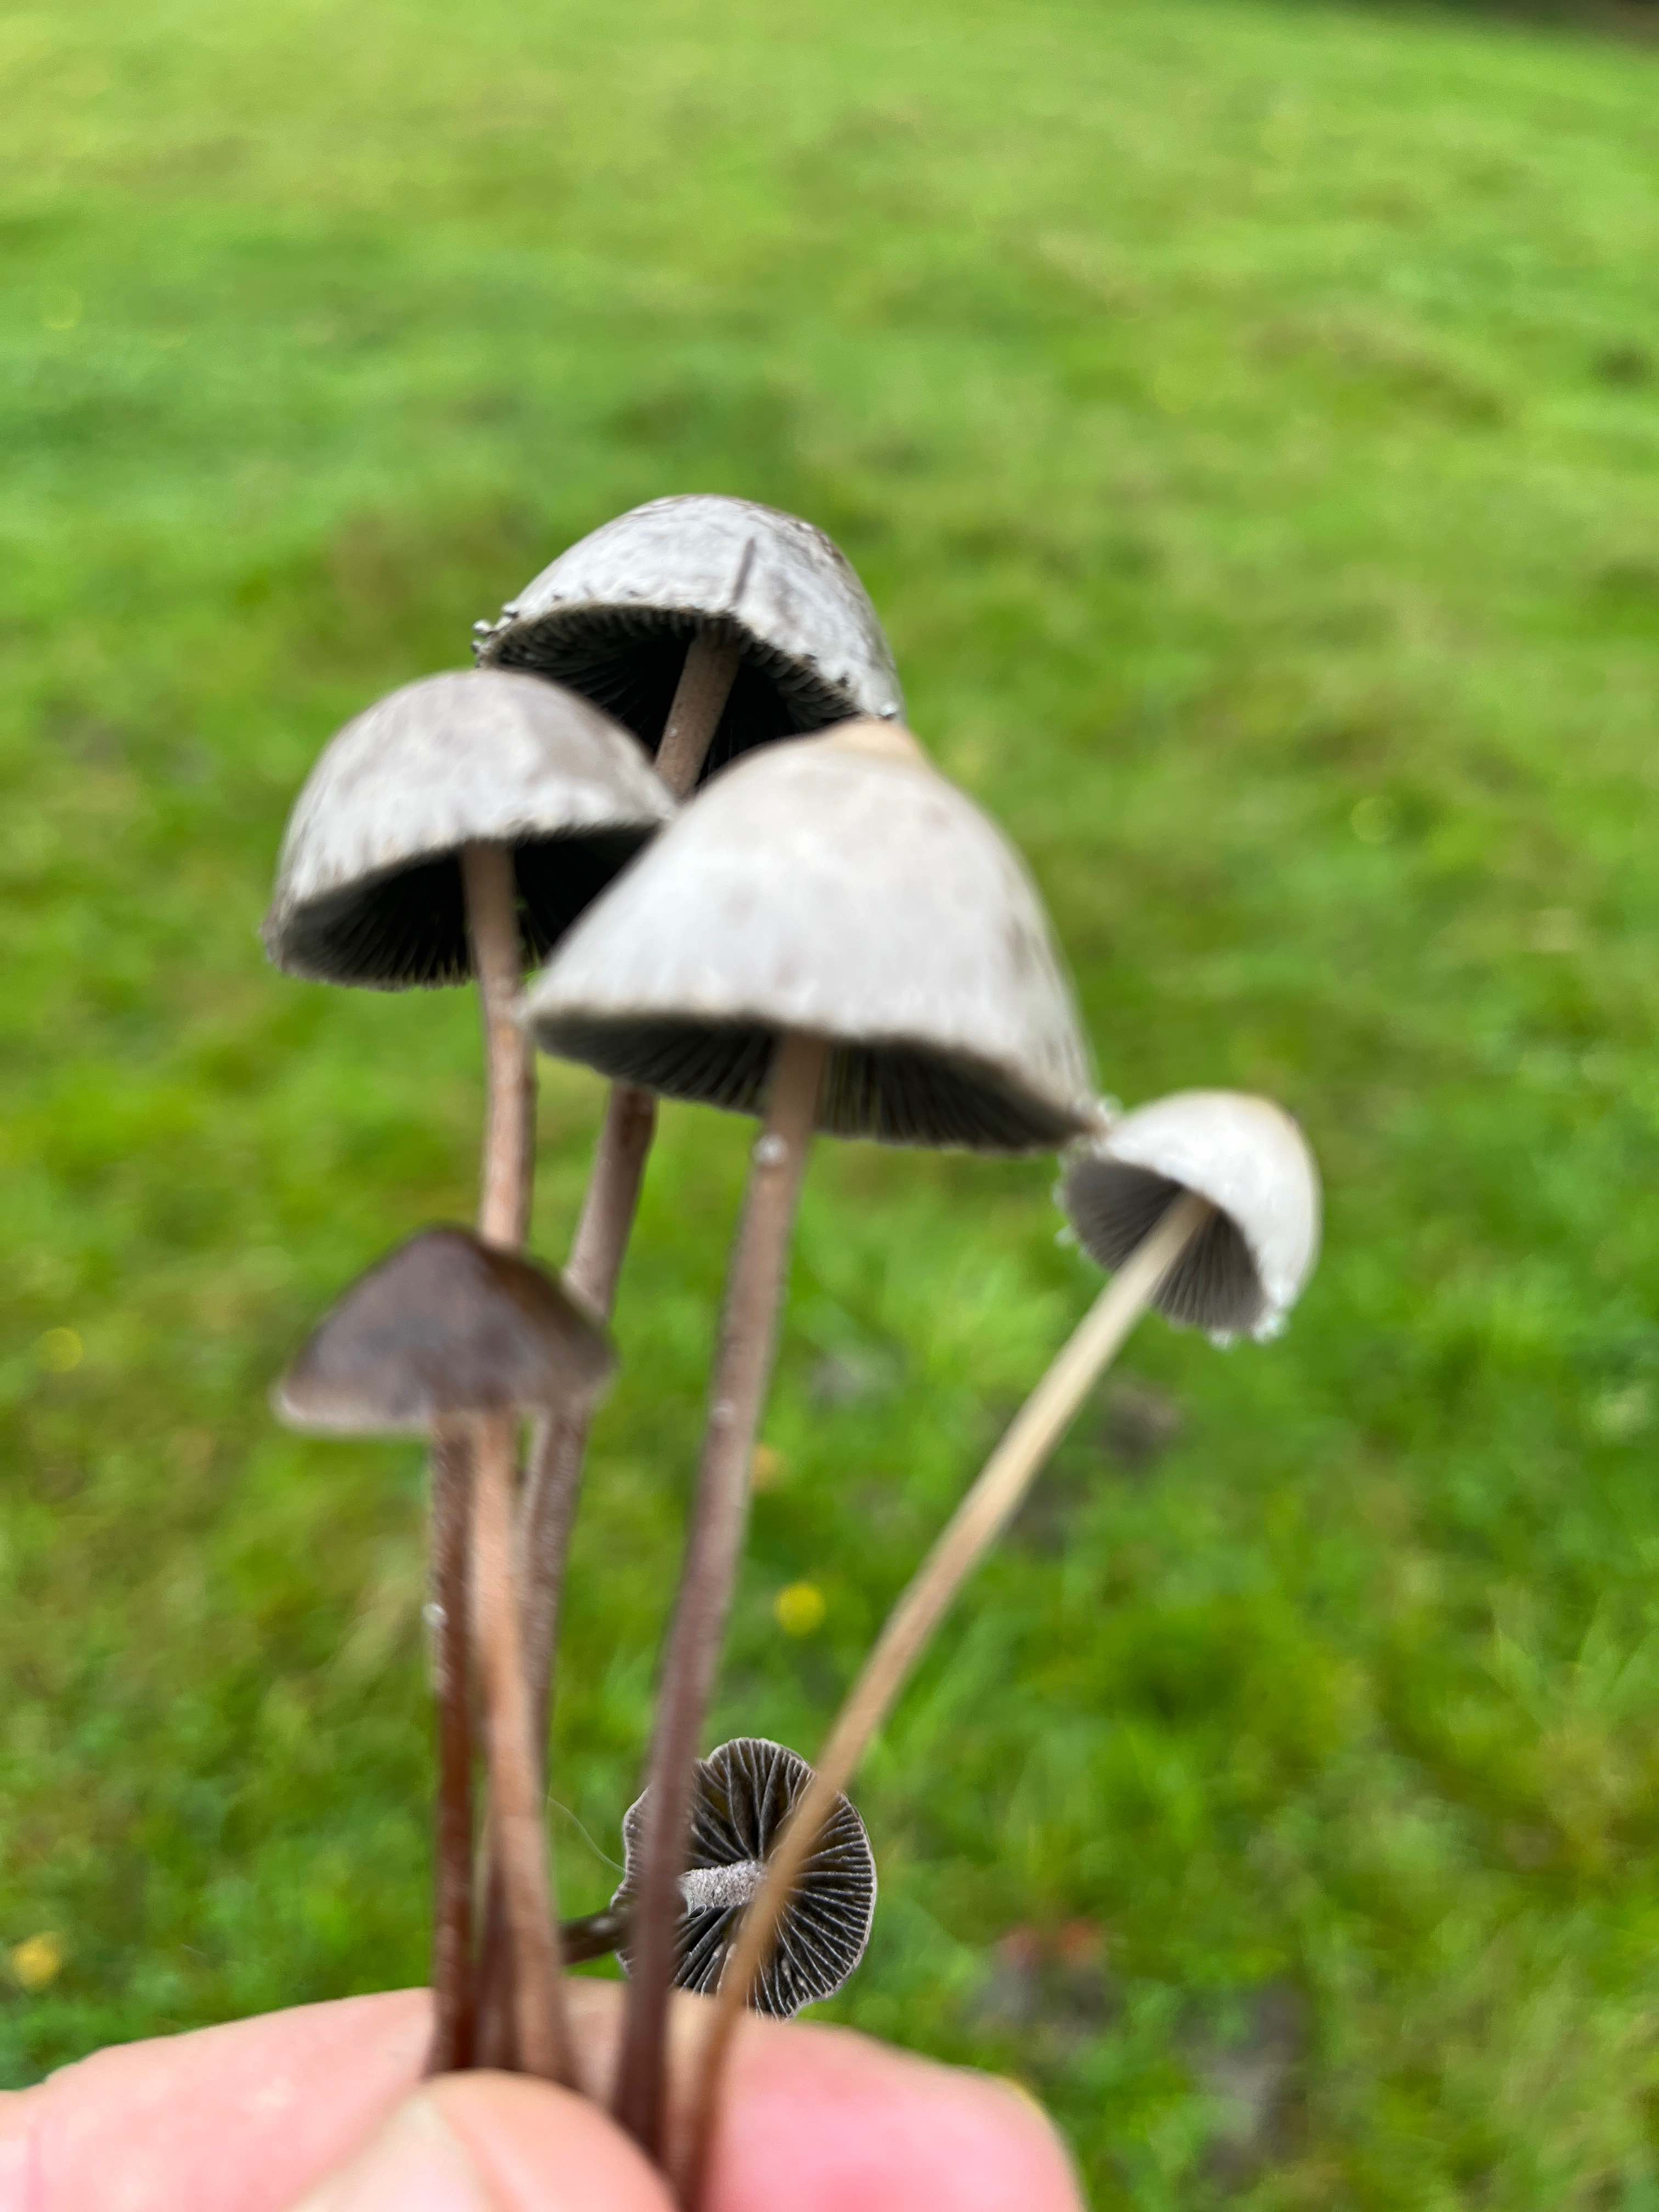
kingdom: Fungi
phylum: Basidiomycota
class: Agaricomycetes
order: Agaricales
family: Bolbitiaceae
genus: Panaeolus
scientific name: Panaeolus papilionaceus
